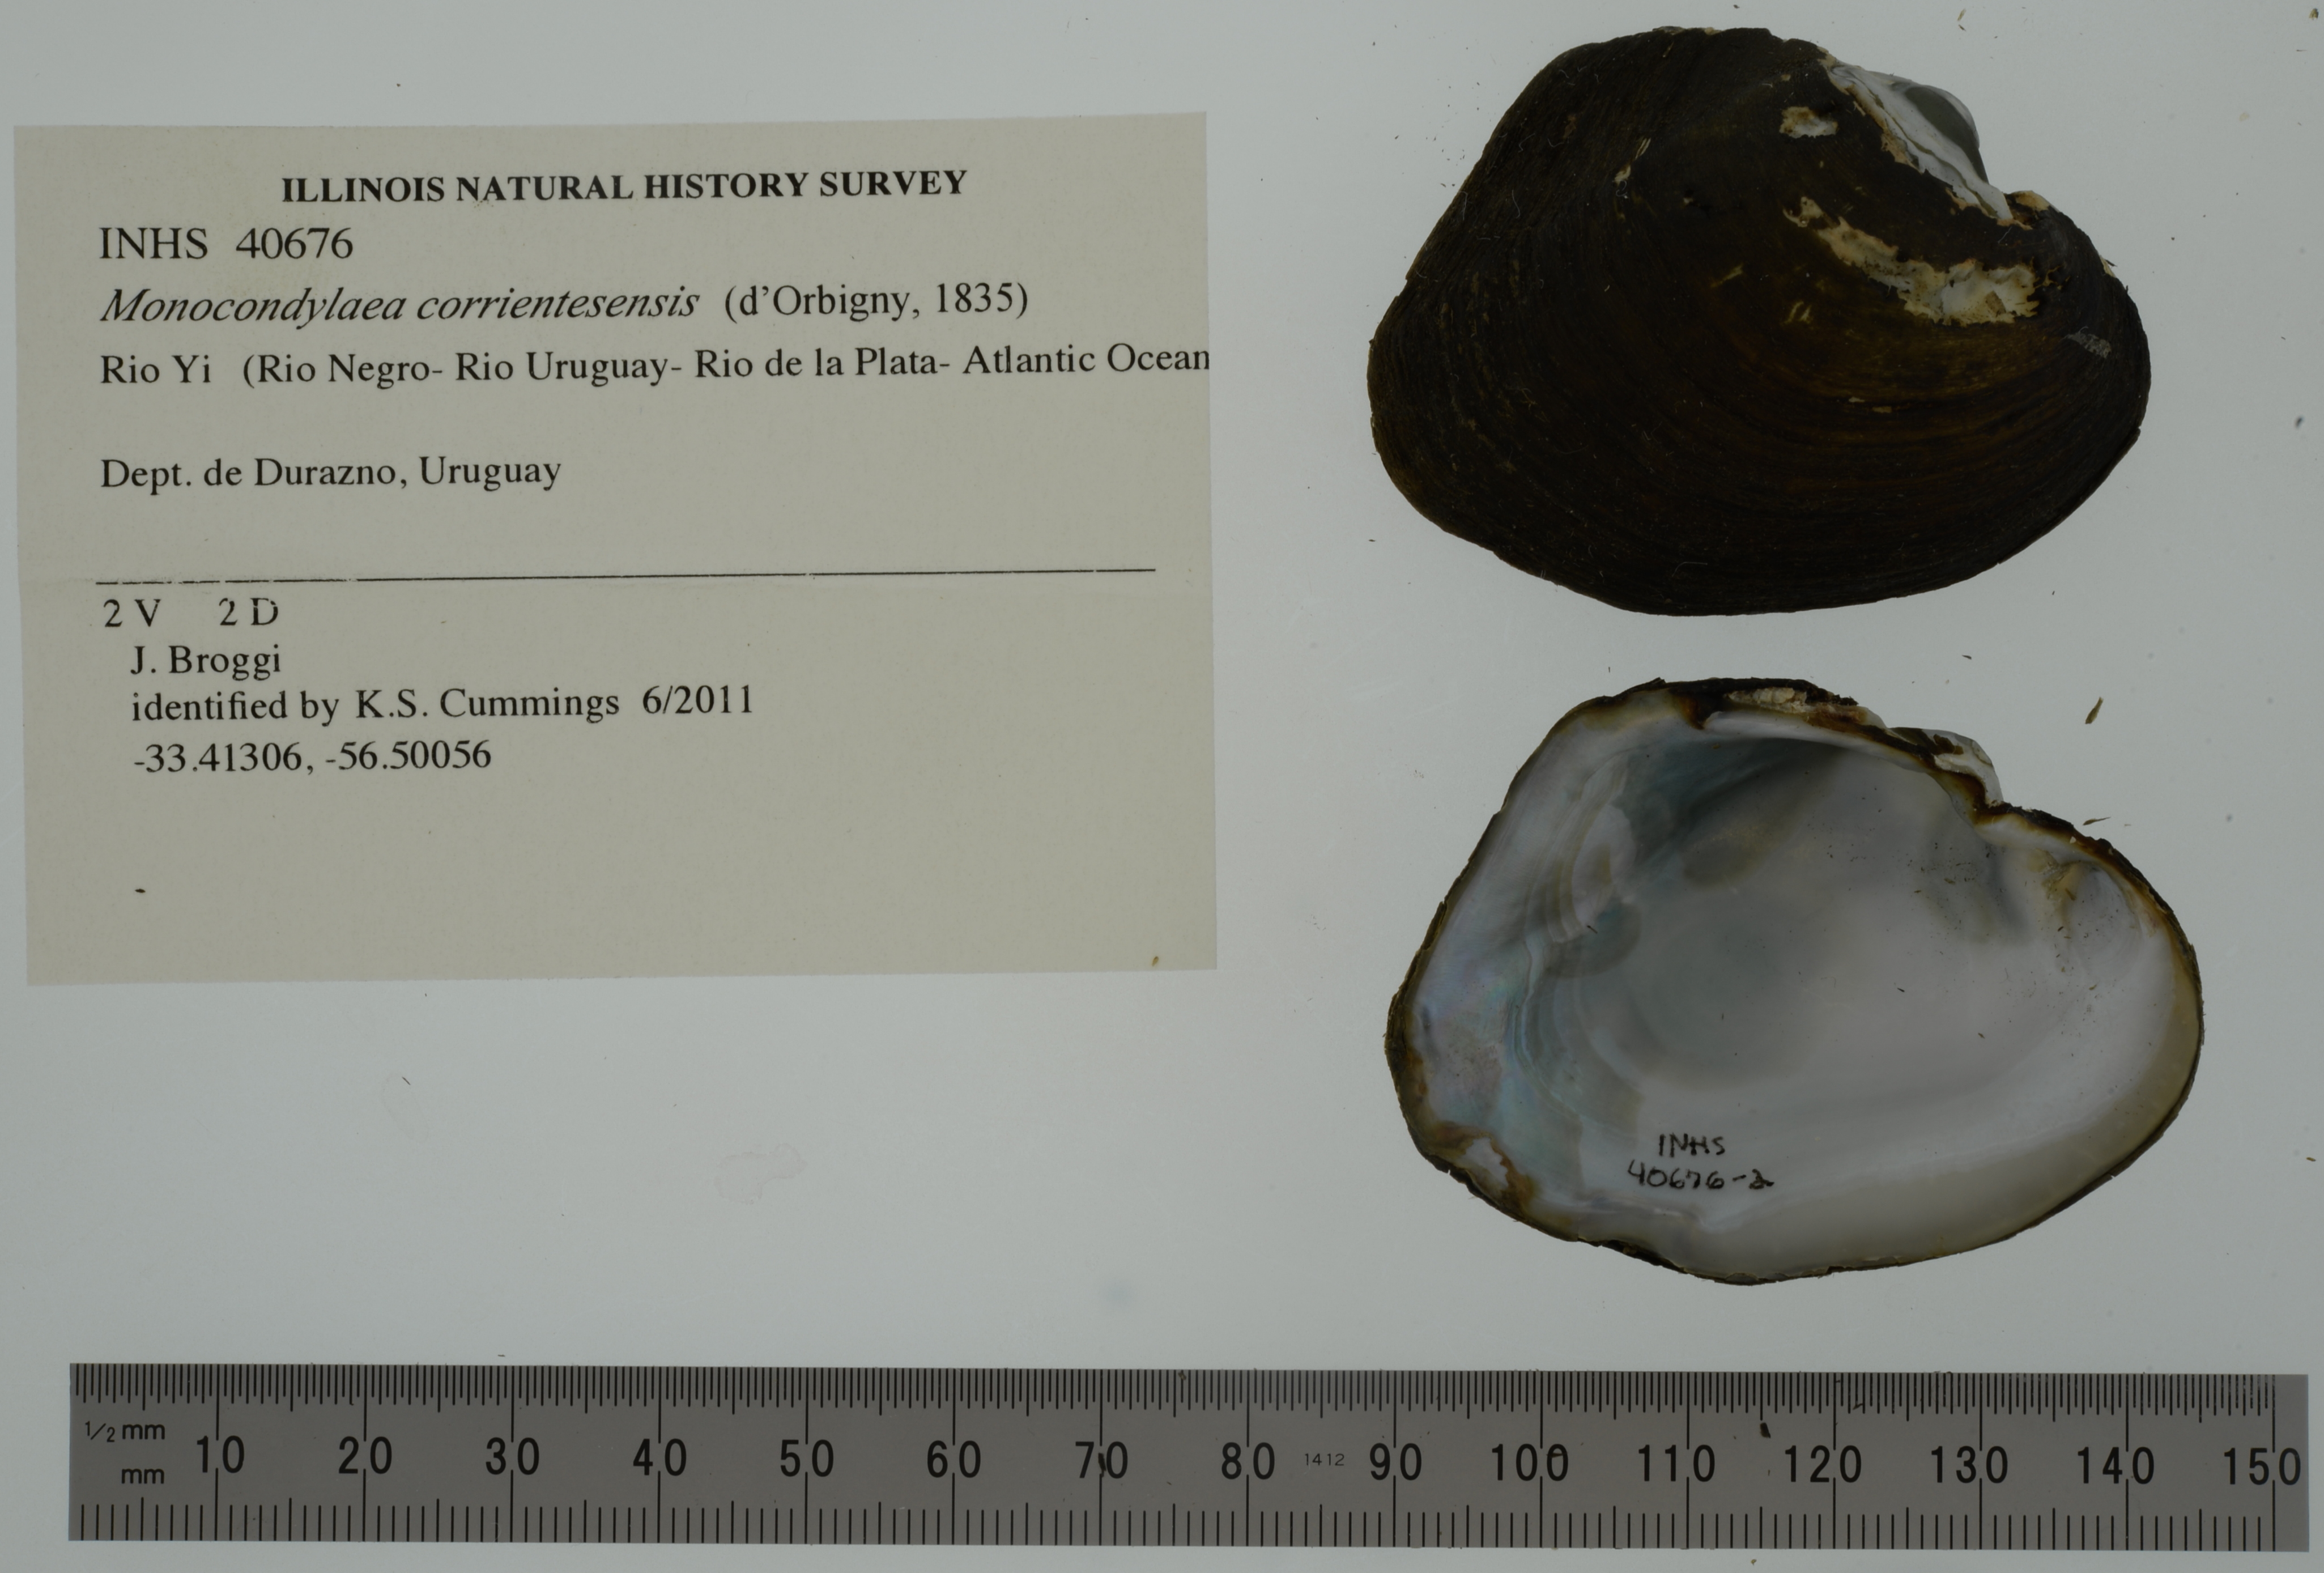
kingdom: Animalia
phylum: Mollusca
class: Bivalvia
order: Unionida
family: Mycetopodidae
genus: Monocondylaea
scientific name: Monocondylaea corrientesensis
